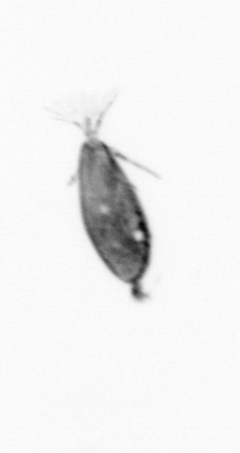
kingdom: Animalia
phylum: Arthropoda
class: Maxillopoda
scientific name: Maxillopoda
